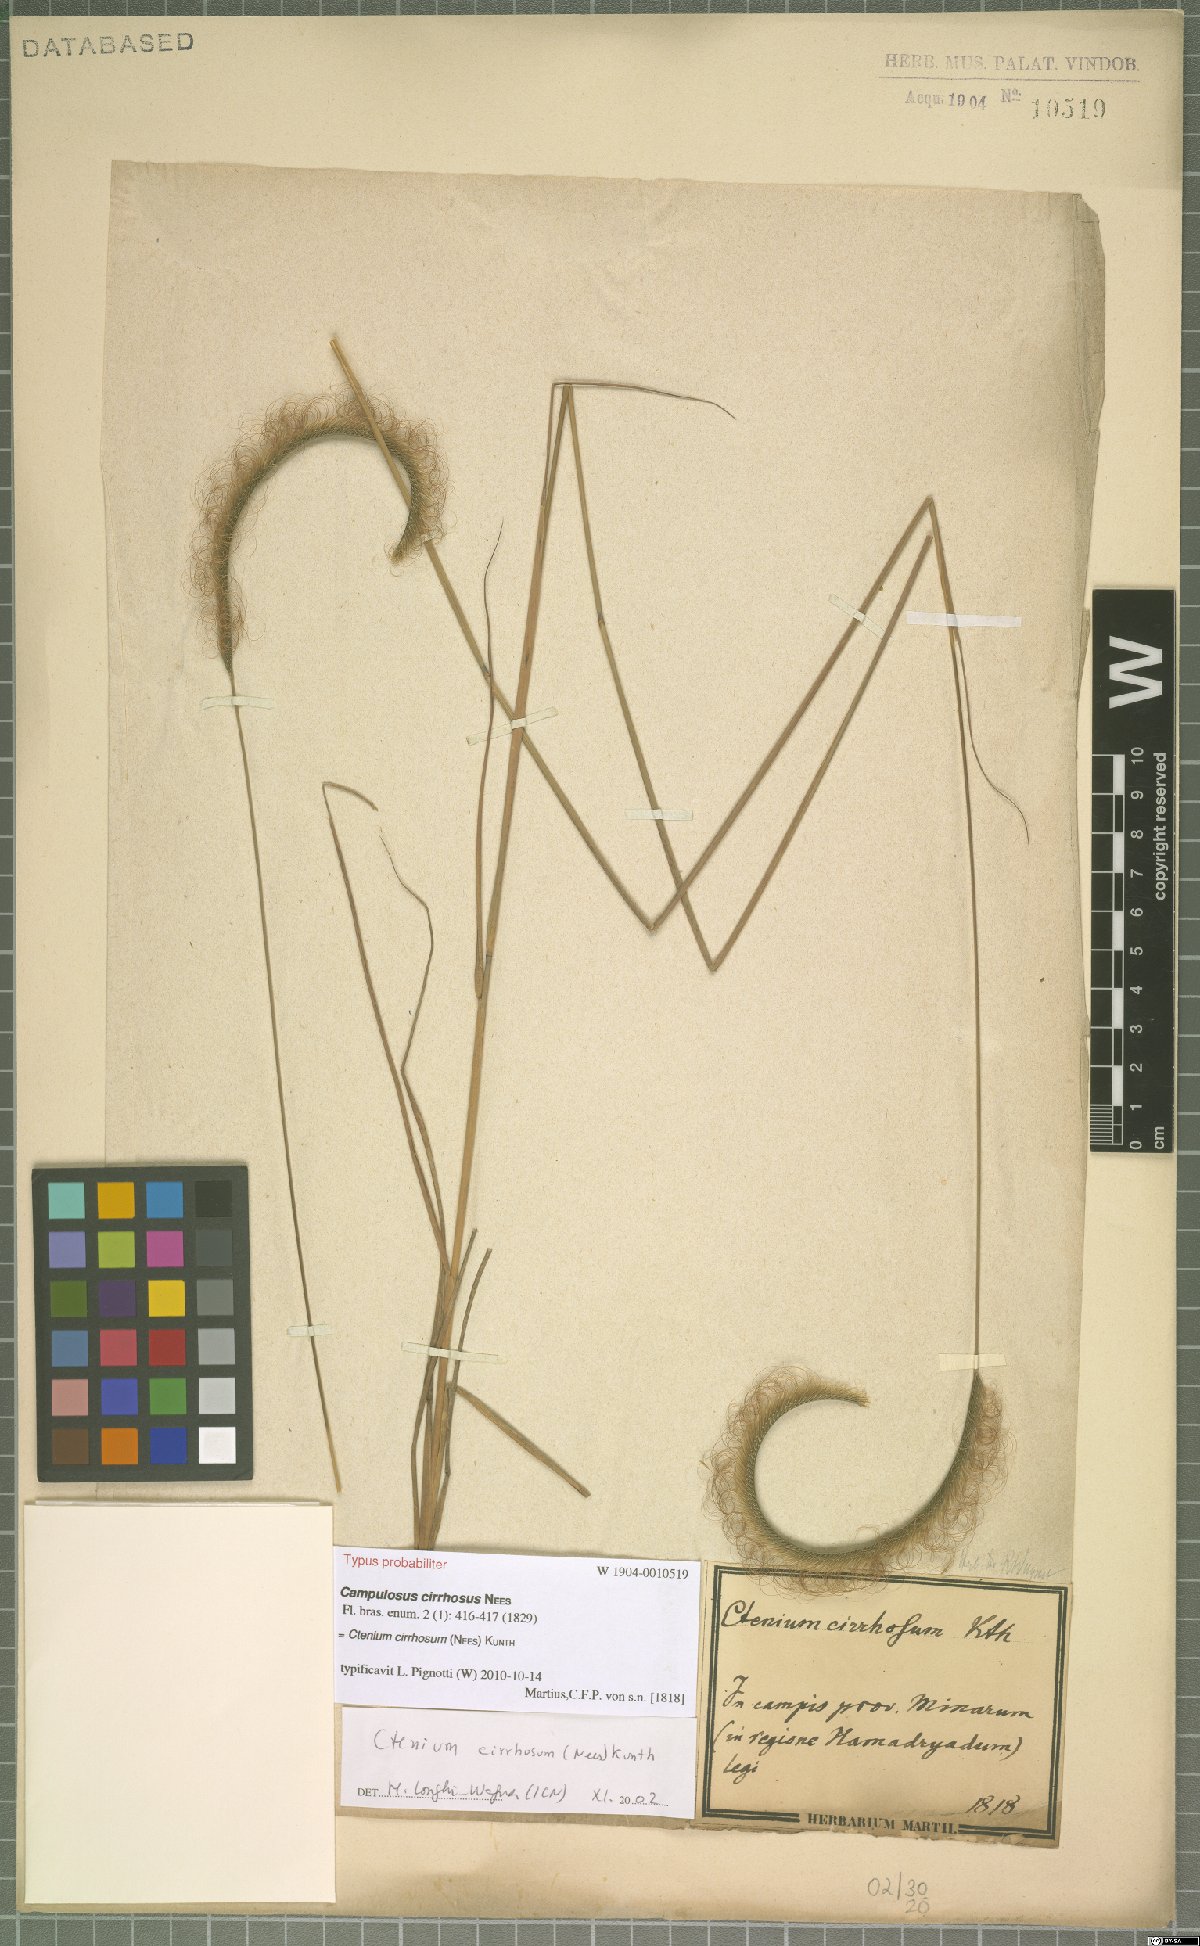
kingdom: Plantae
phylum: Tracheophyta
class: Liliopsida
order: Poales
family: Poaceae
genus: Ctenium
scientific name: Ctenium cirrhosum
